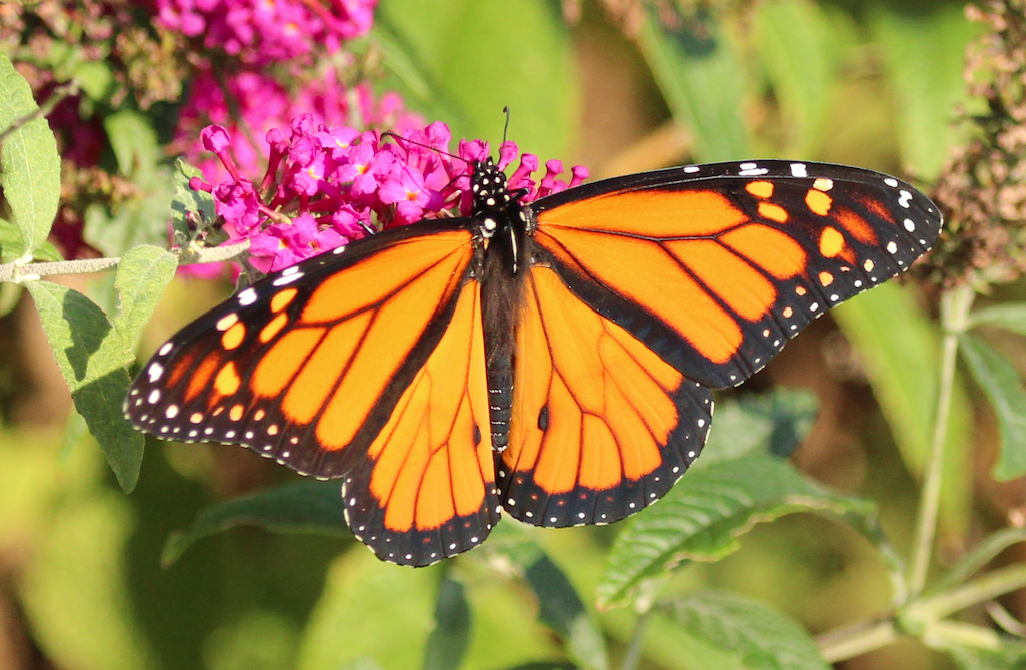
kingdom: Animalia
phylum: Arthropoda
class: Insecta
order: Lepidoptera
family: Nymphalidae
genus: Danaus
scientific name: Danaus plexippus
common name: Monarch
